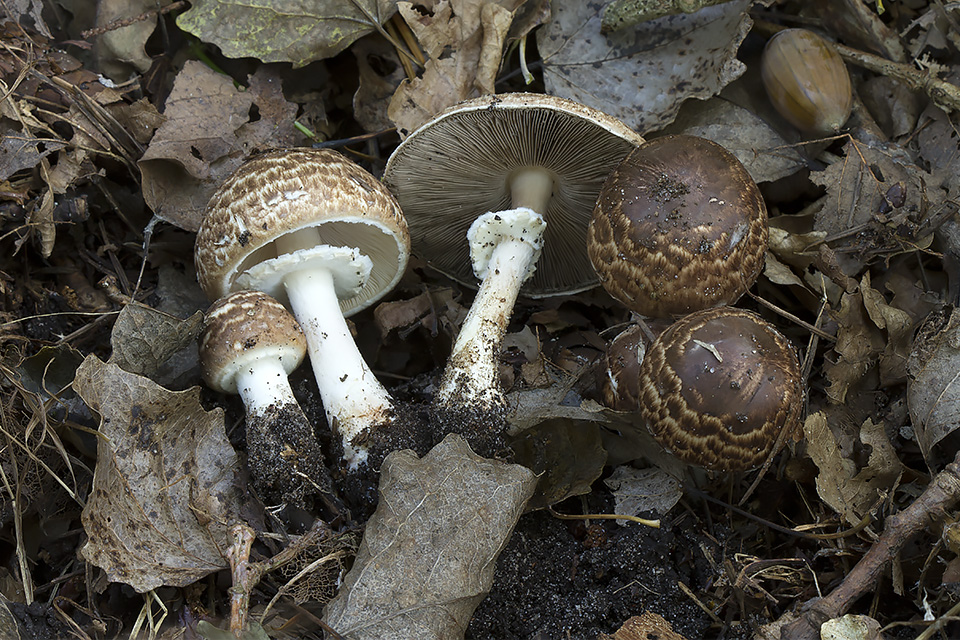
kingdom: Fungi
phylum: Basidiomycota
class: Agaricomycetes
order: Agaricales
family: Agaricaceae
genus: Agaricus
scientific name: Agaricus impudicus
